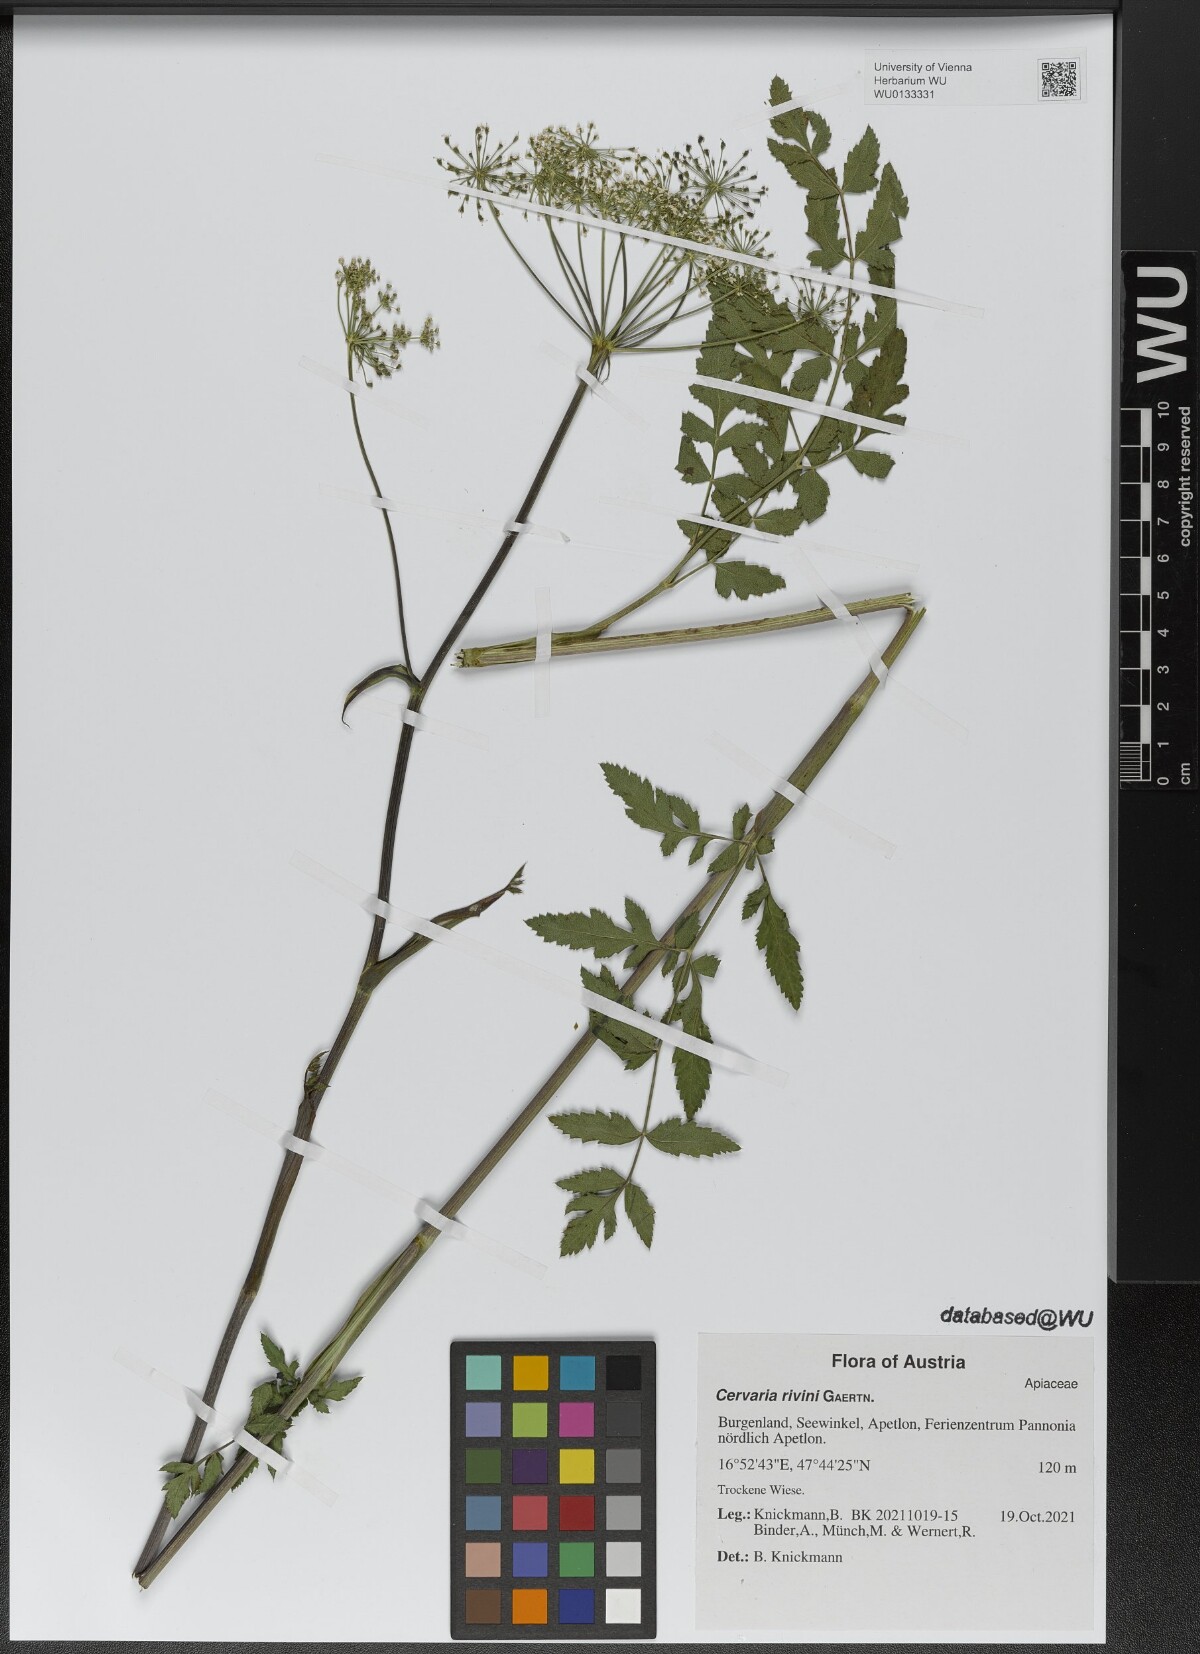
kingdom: Plantae
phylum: Tracheophyta
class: Magnoliopsida
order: Apiales
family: Apiaceae
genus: Cervaria
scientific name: Cervaria rivini
